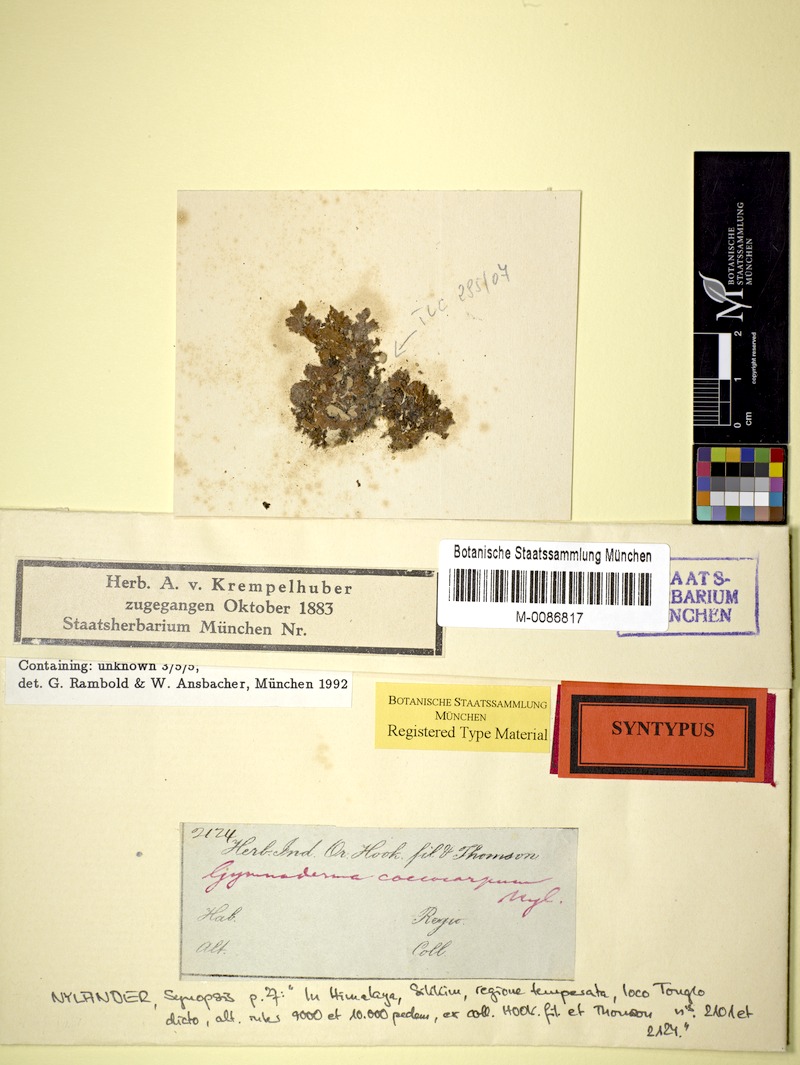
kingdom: Fungi
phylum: Ascomycota
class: Lecanoromycetes
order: Lecanorales
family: Cladoniaceae
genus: Gymnoderma
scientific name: Gymnoderma coccocarpum
